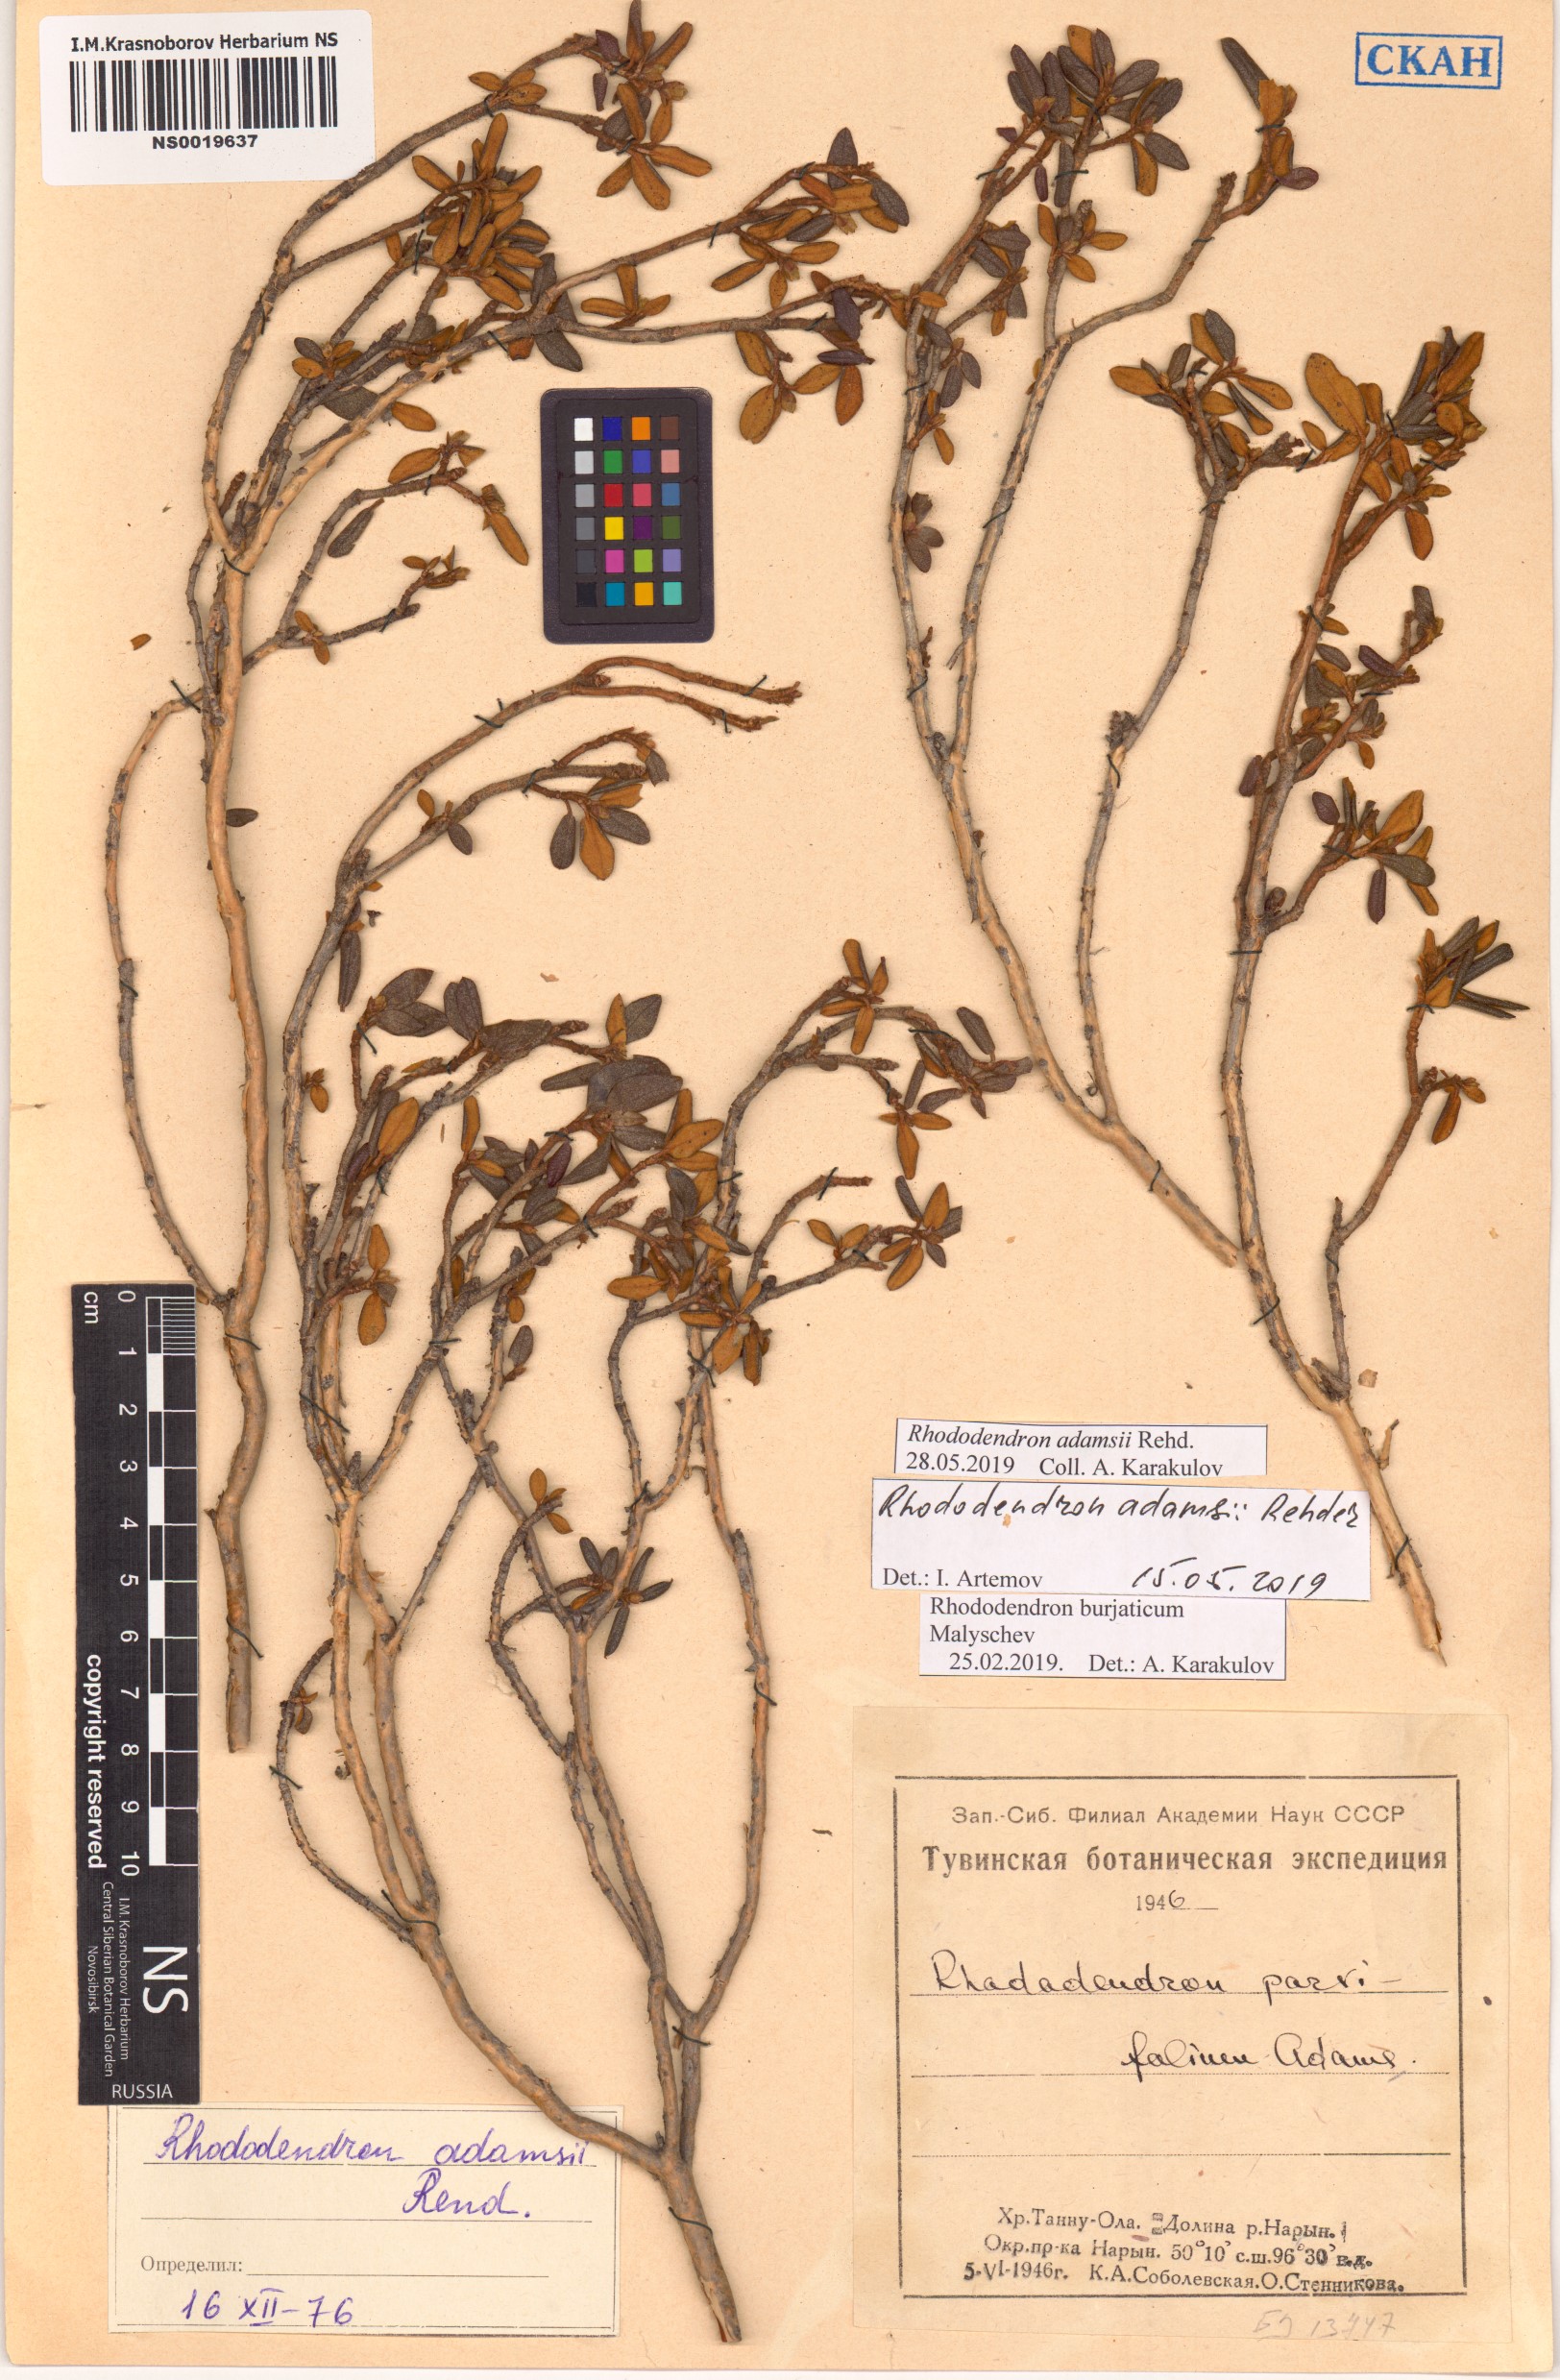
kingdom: Plantae
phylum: Tracheophyta
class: Magnoliopsida
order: Ericales
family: Ericaceae
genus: Rhododendron
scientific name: Rhododendron adamsii
